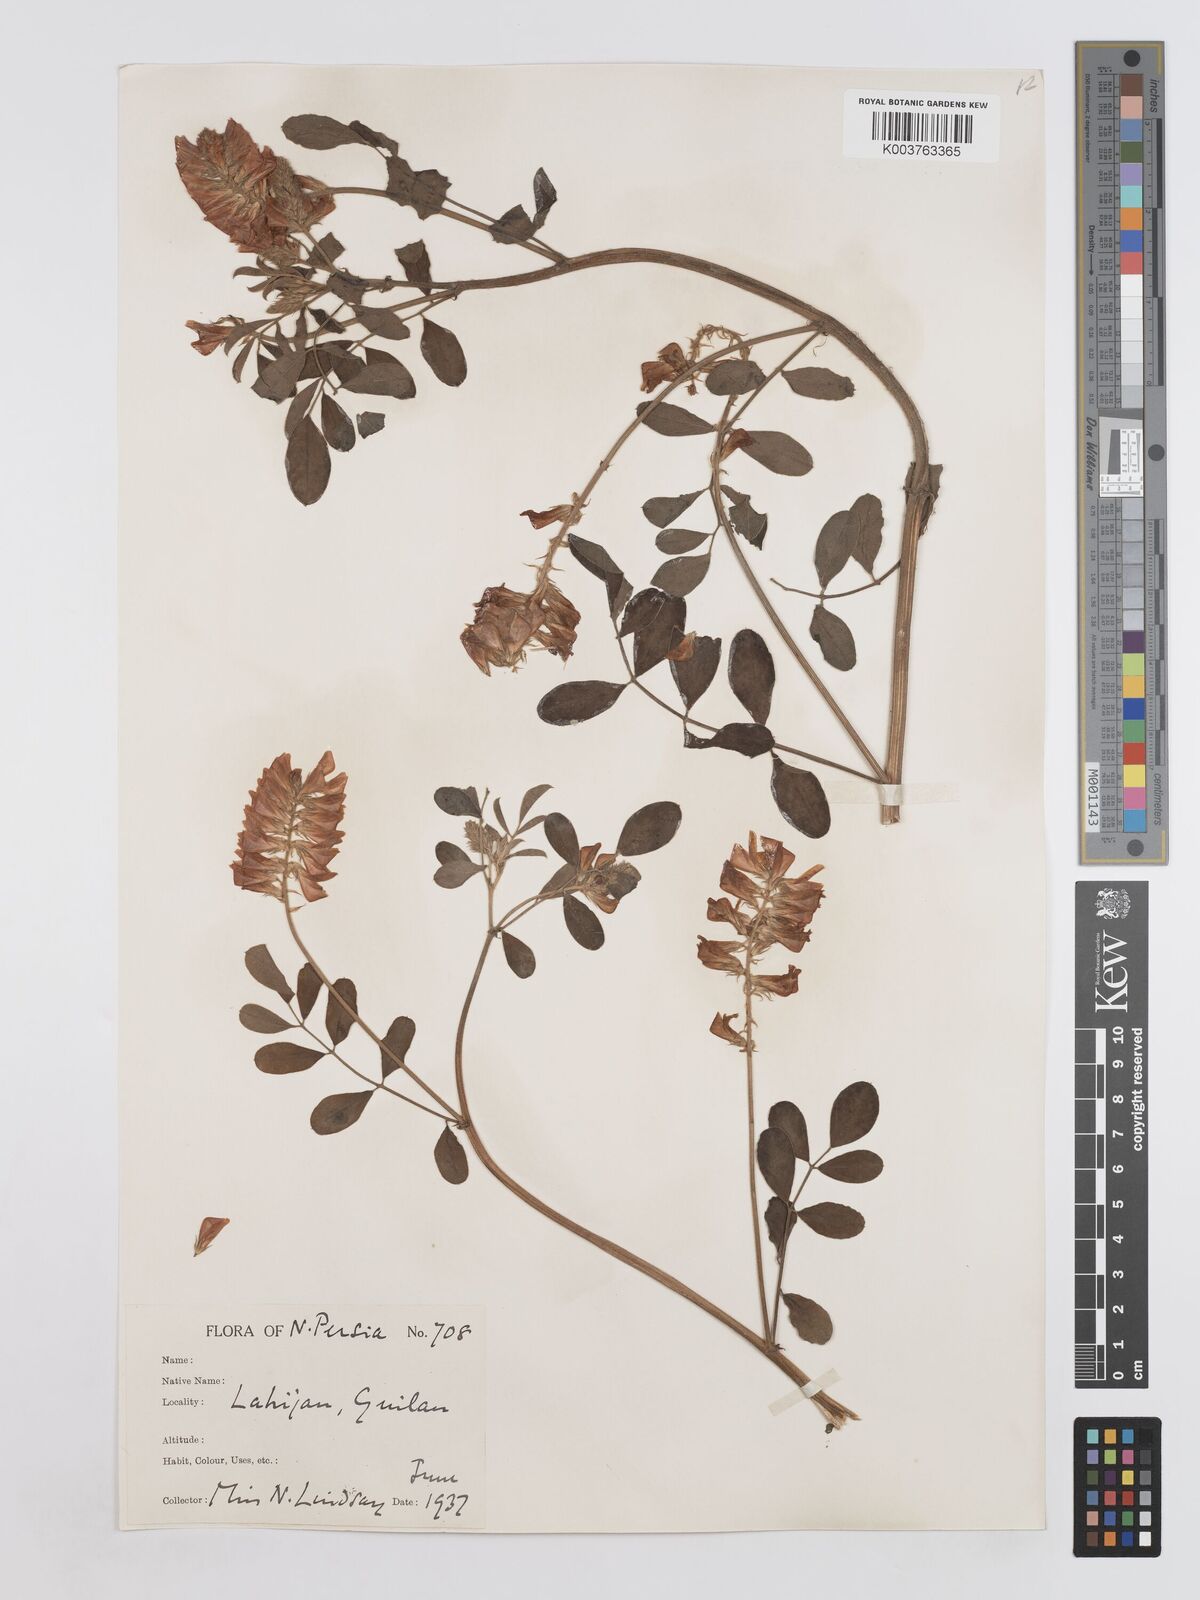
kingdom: Plantae
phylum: Tracheophyta
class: Magnoliopsida
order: Fabales
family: Fabaceae
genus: Sulla
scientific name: Sulla coronaria
